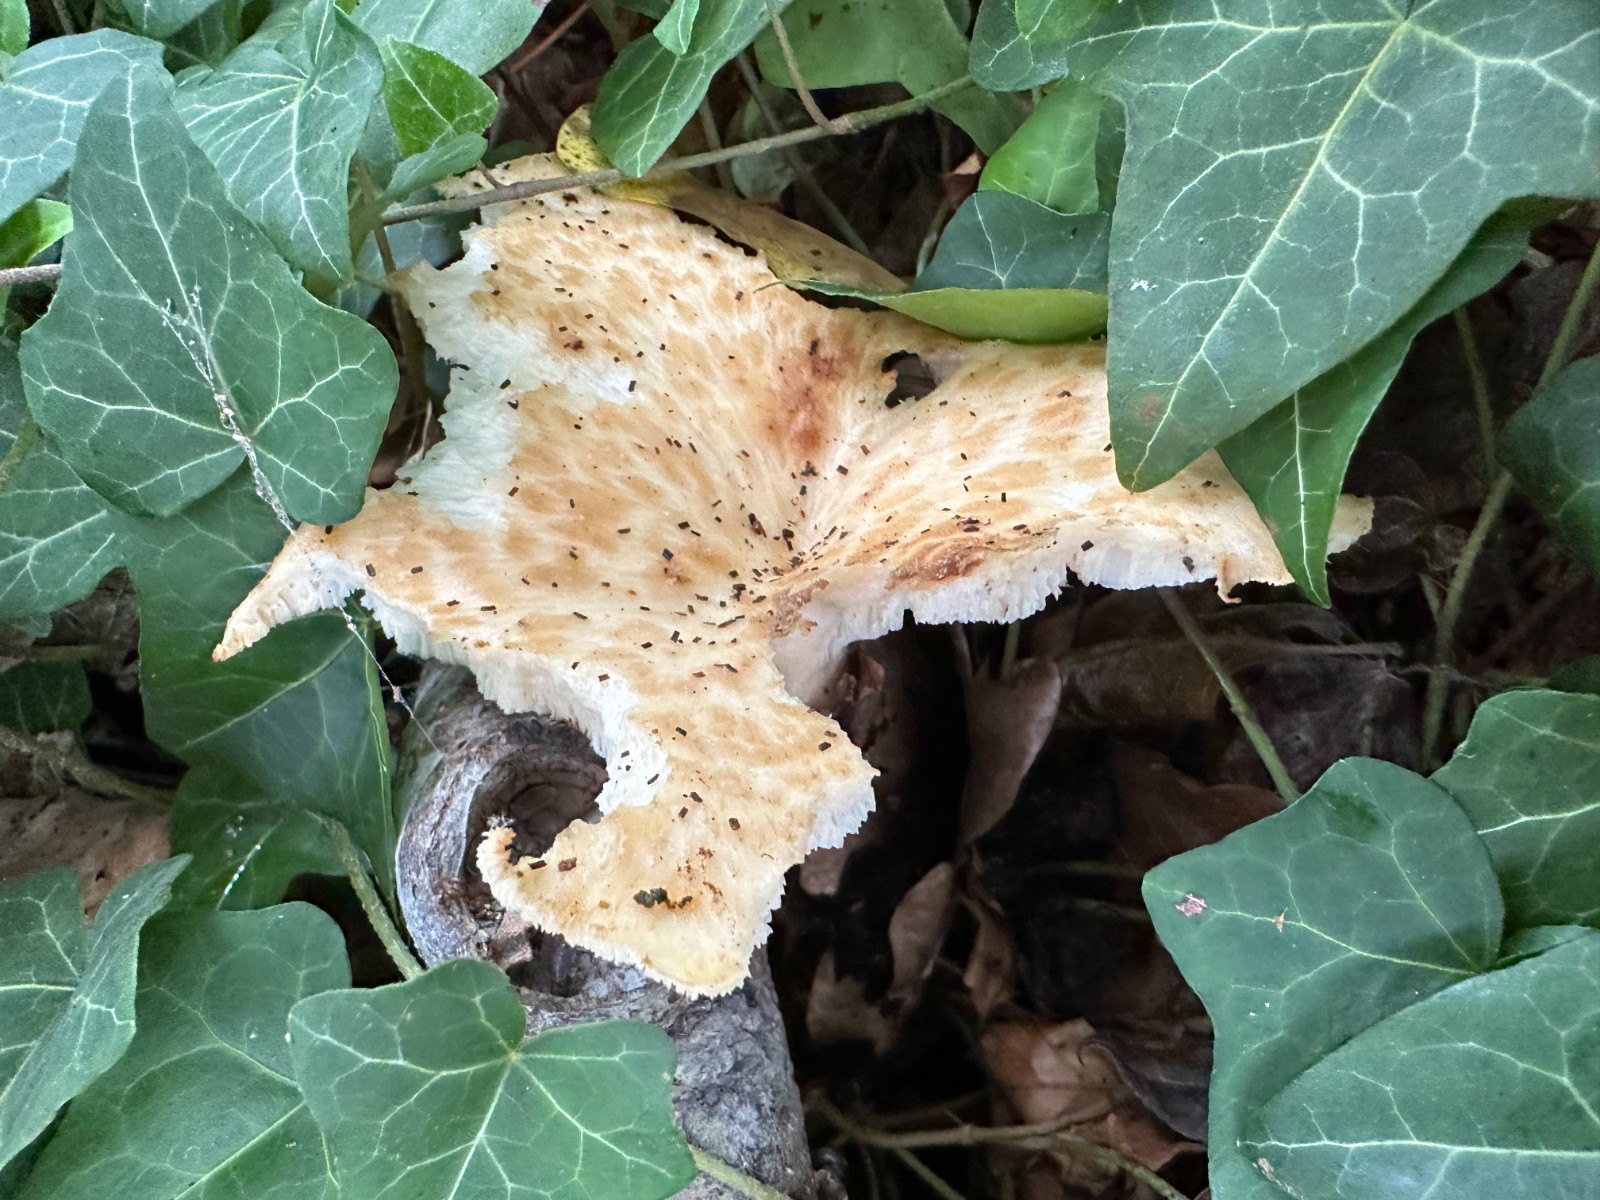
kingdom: Fungi
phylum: Basidiomycota
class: Agaricomycetes
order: Polyporales
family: Polyporaceae
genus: Polyporus
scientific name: Polyporus tuberaster
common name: knoldet stilkporesvamp
